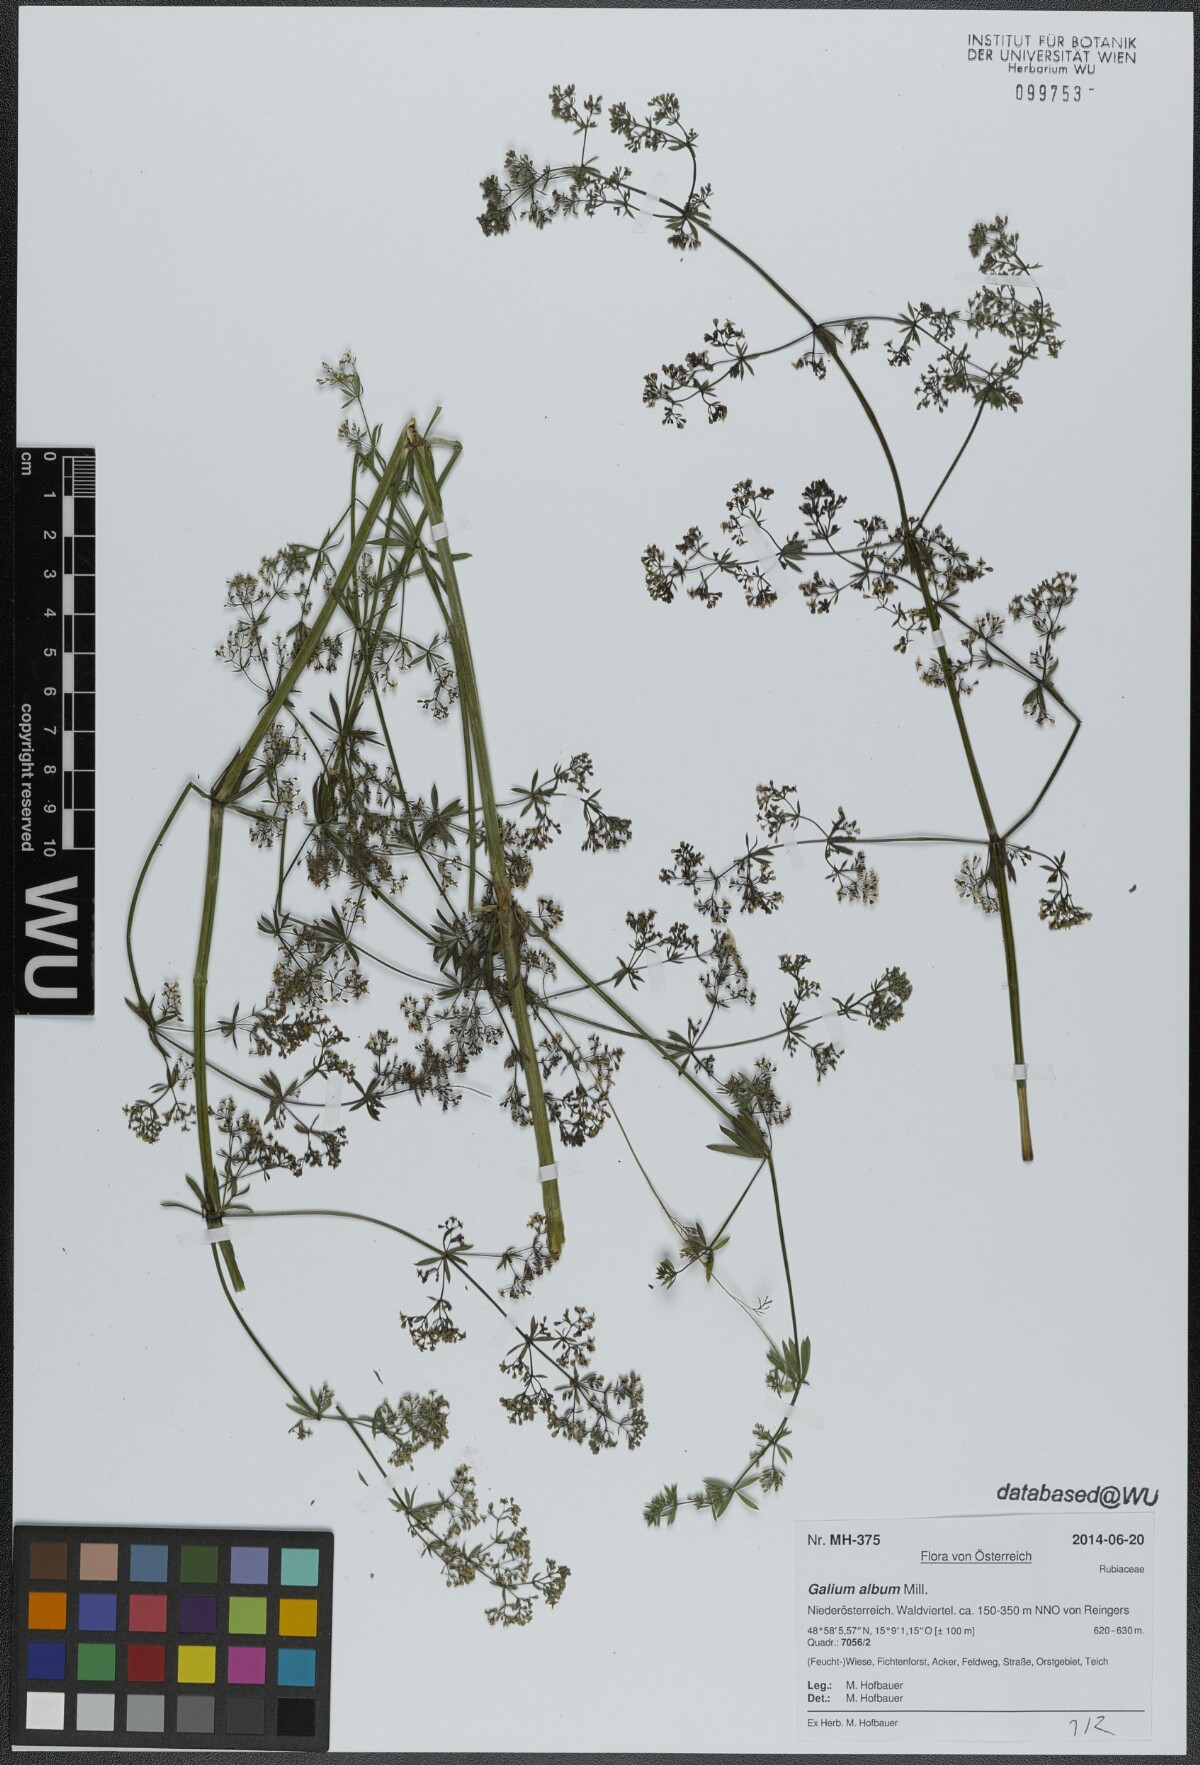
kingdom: Plantae
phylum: Tracheophyta
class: Magnoliopsida
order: Gentianales
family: Rubiaceae
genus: Galium
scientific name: Galium album
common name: White bedstraw
